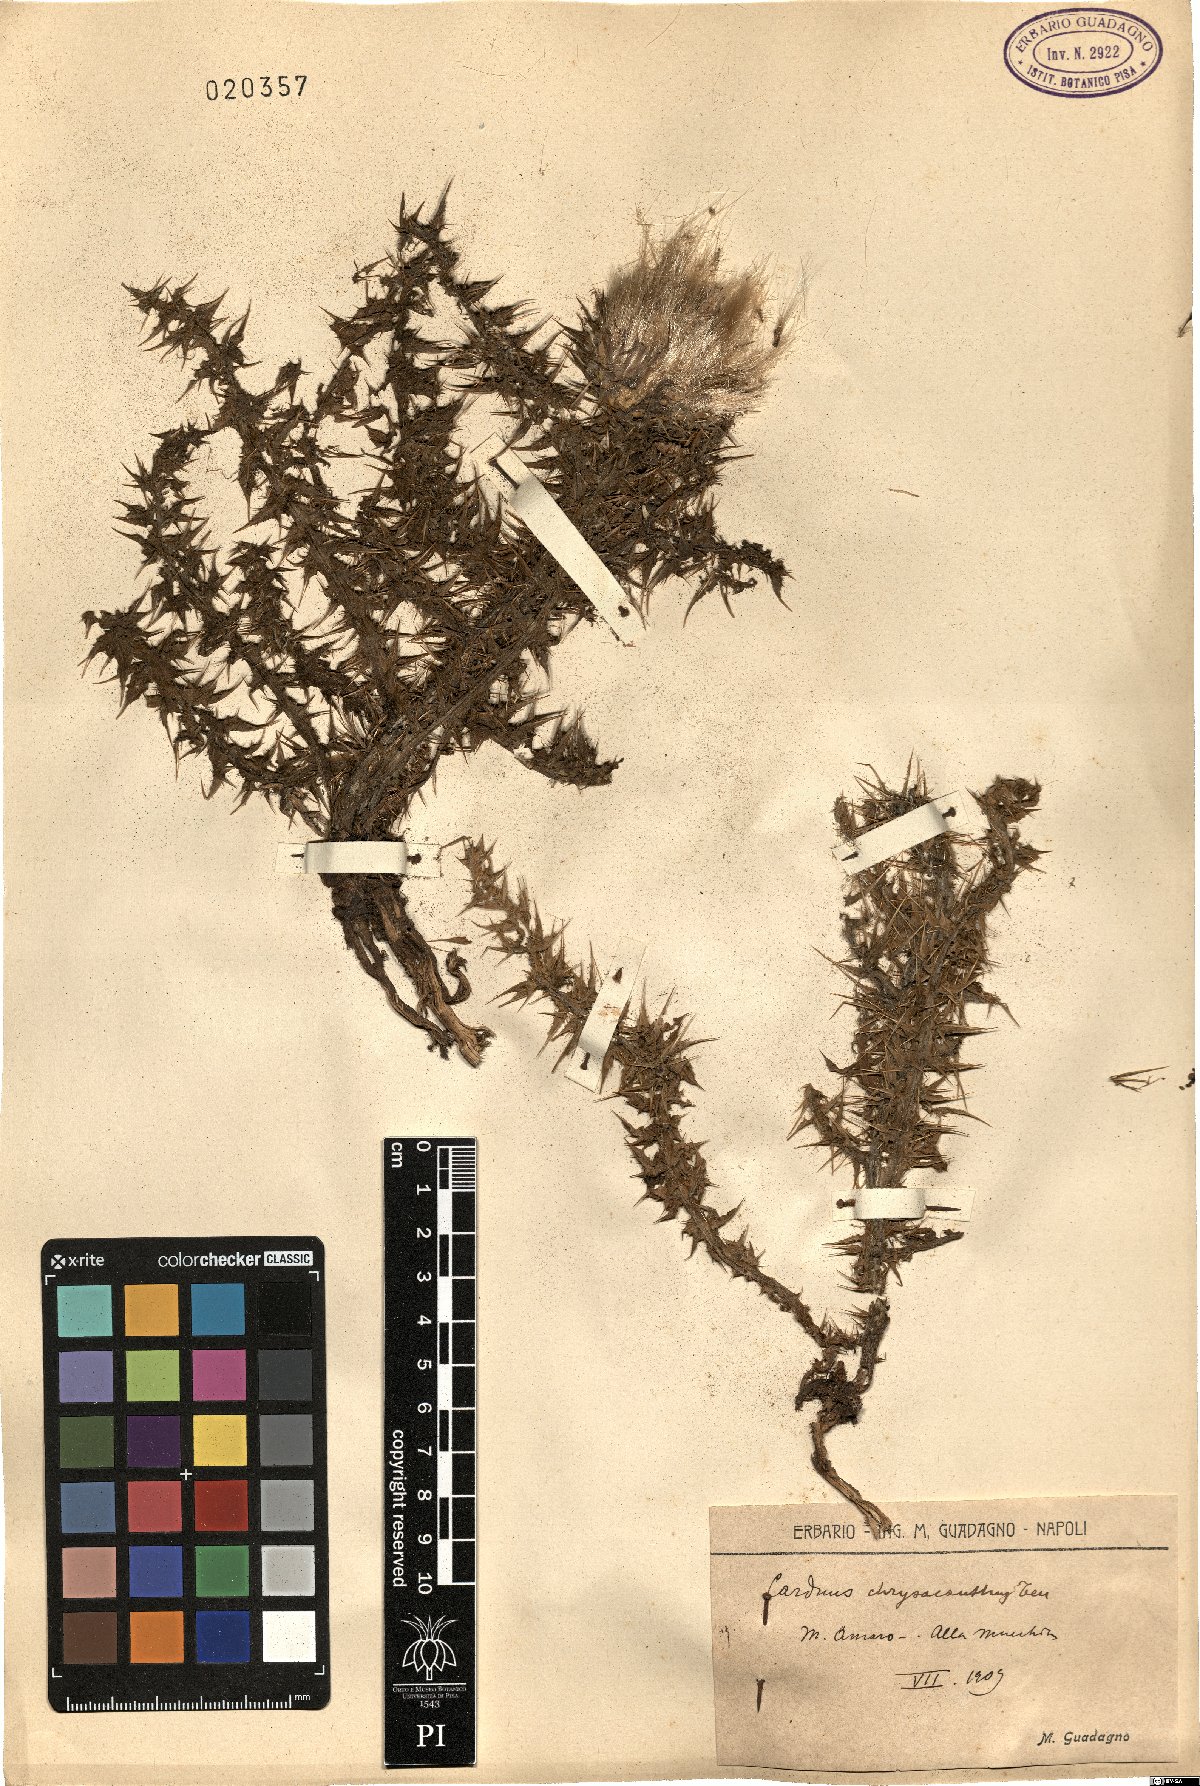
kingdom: Plantae
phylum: Tracheophyta
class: Magnoliopsida
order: Asterales
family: Asteraceae
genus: Carduus
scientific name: Carduus chrysacanthus
